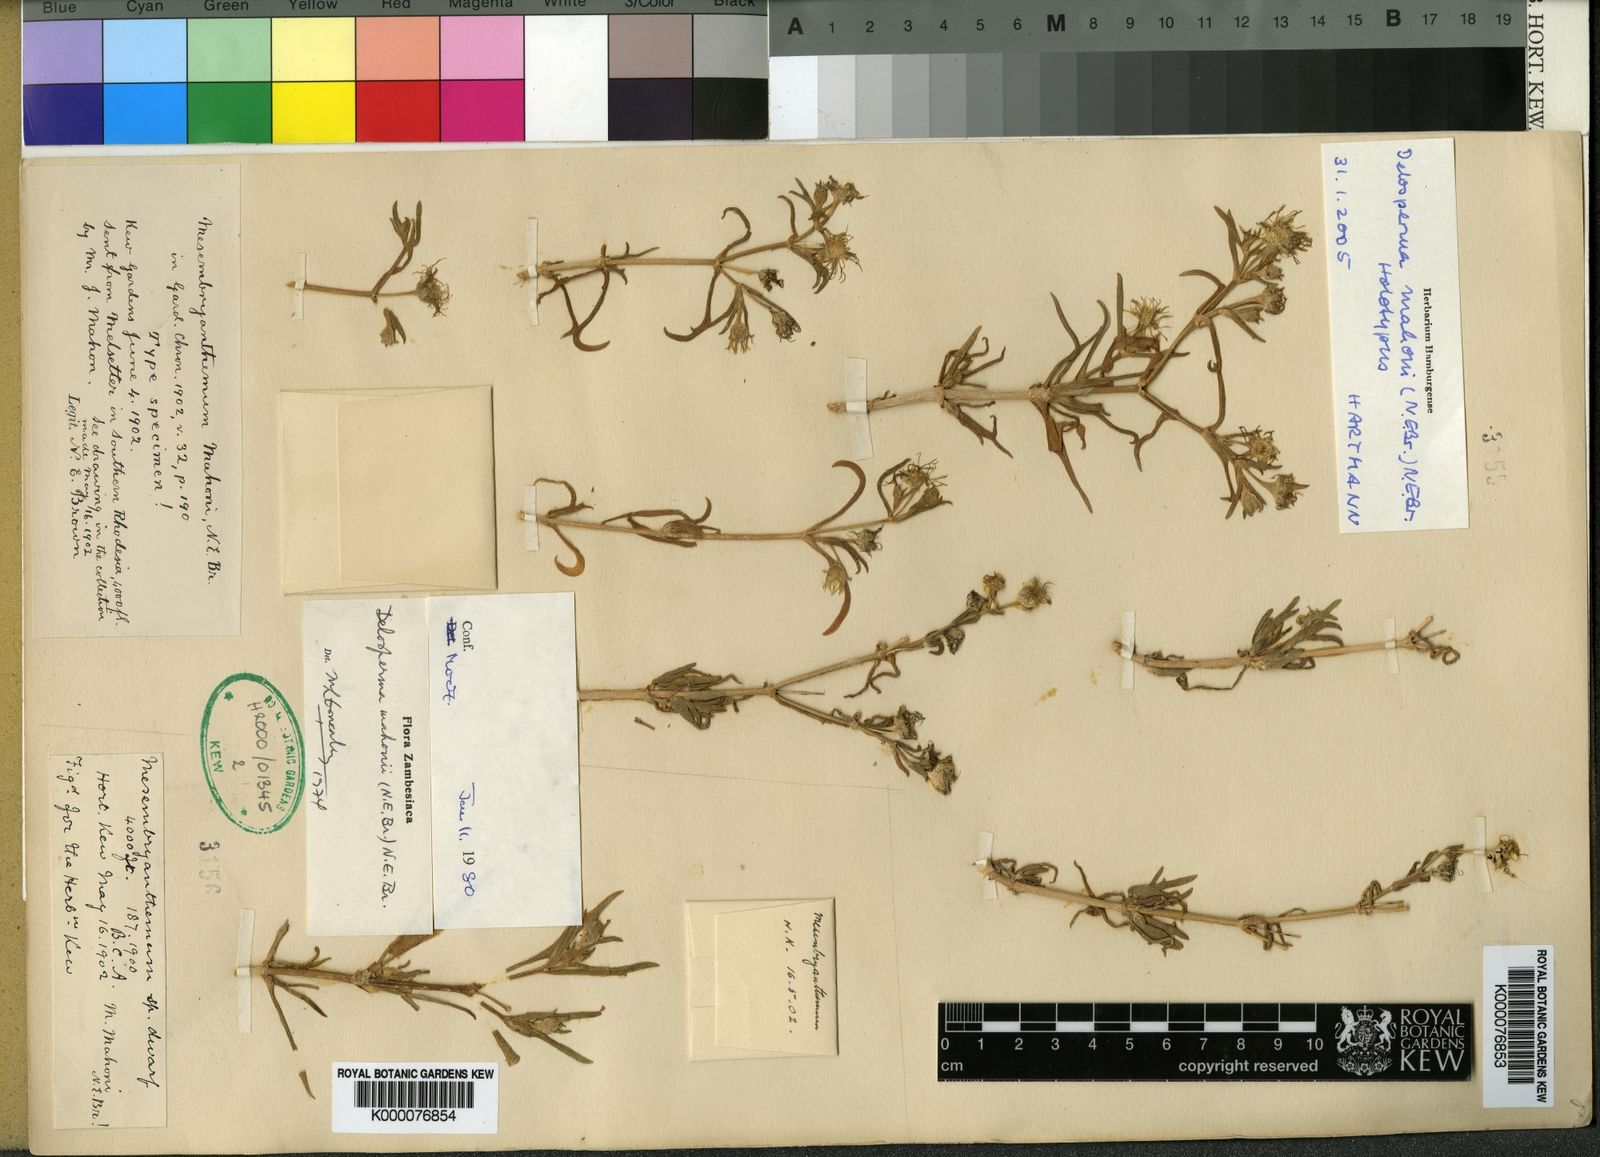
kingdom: Plantae
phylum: Tracheophyta
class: Magnoliopsida
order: Caryophyllales
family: Aizoaceae
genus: Delosperma
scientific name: Delosperma mahonii
